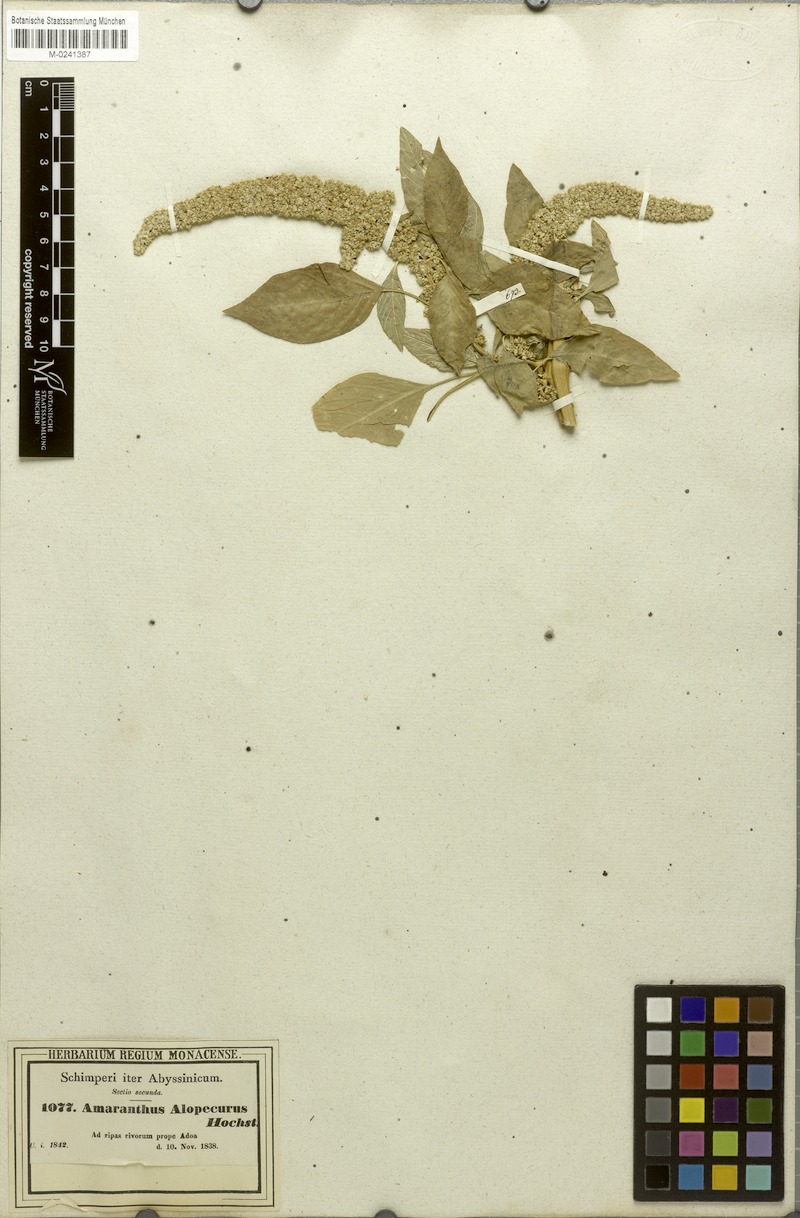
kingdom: Plantae
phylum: Tracheophyta
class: Magnoliopsida
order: Caryophyllales
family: Amaranthaceae
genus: Amaranthus
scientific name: Amaranthus caudatus
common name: Love-lies-bleeding
